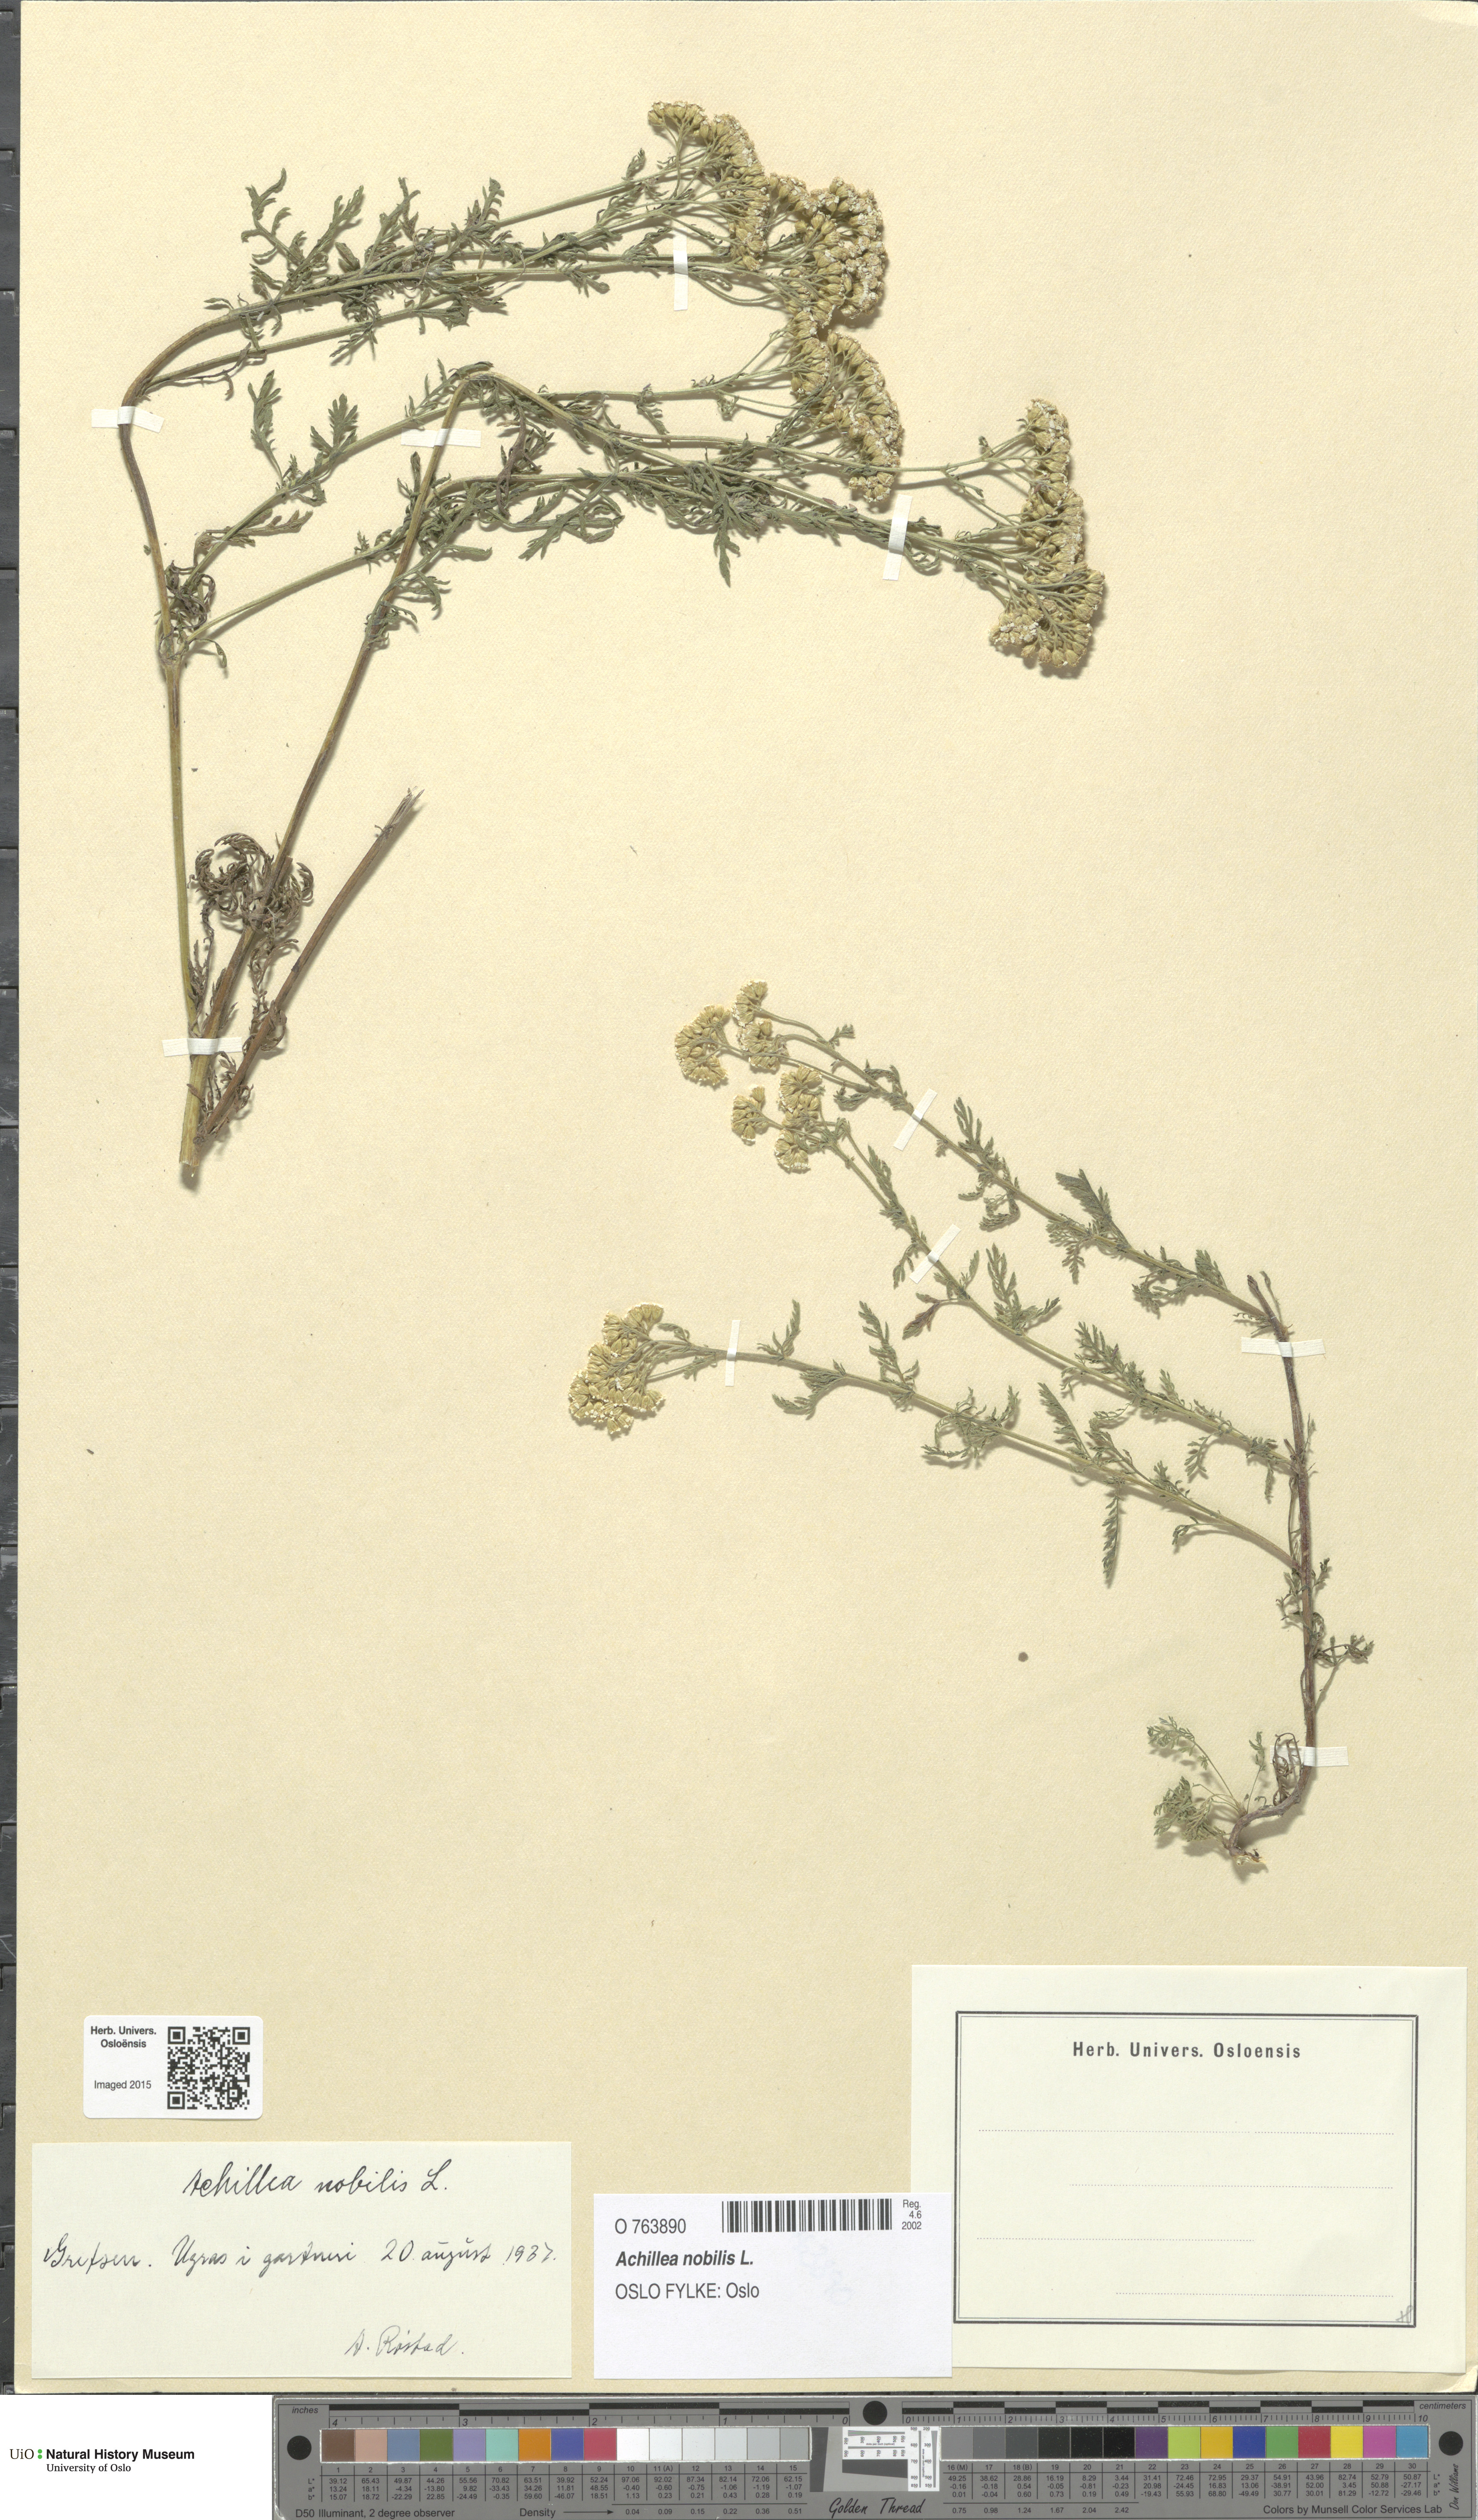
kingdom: Plantae
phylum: Tracheophyta
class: Magnoliopsida
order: Asterales
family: Asteraceae
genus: Achillea
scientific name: Achillea nobilis
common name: Noble yarrow
